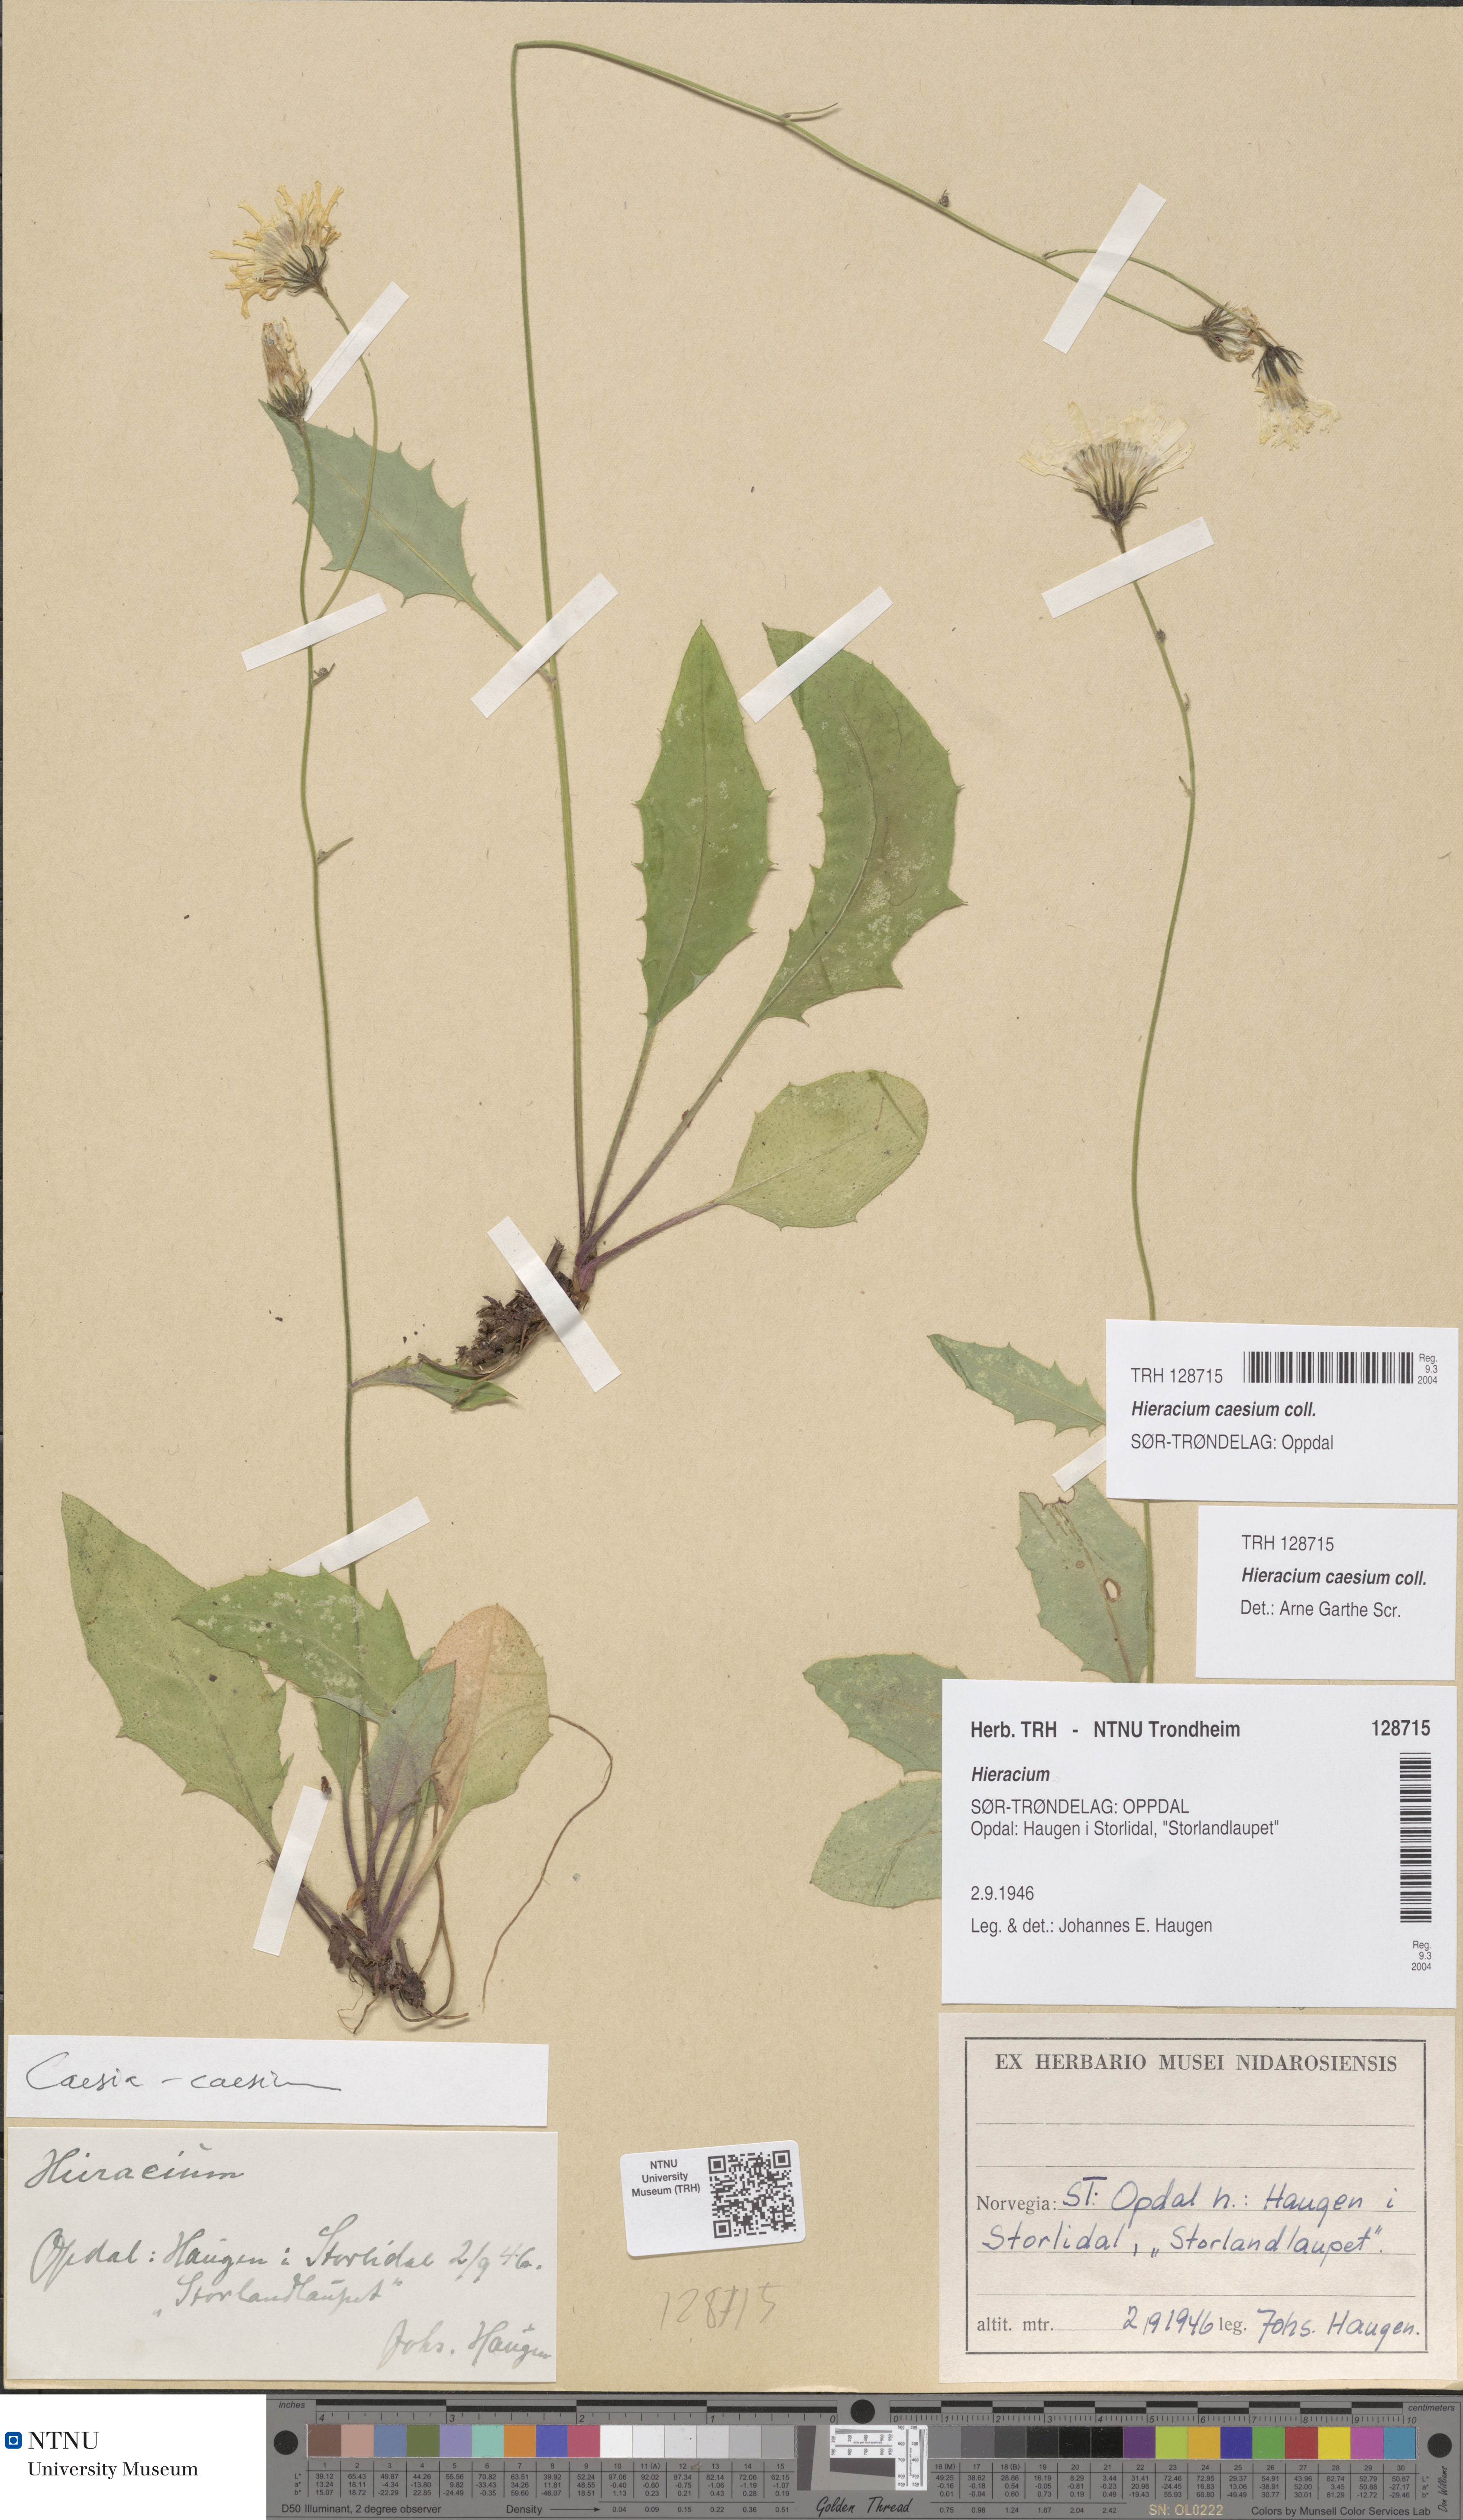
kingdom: Plantae
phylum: Tracheophyta
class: Magnoliopsida
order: Asterales
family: Asteraceae
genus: Hieracium
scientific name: Hieracium caesium
